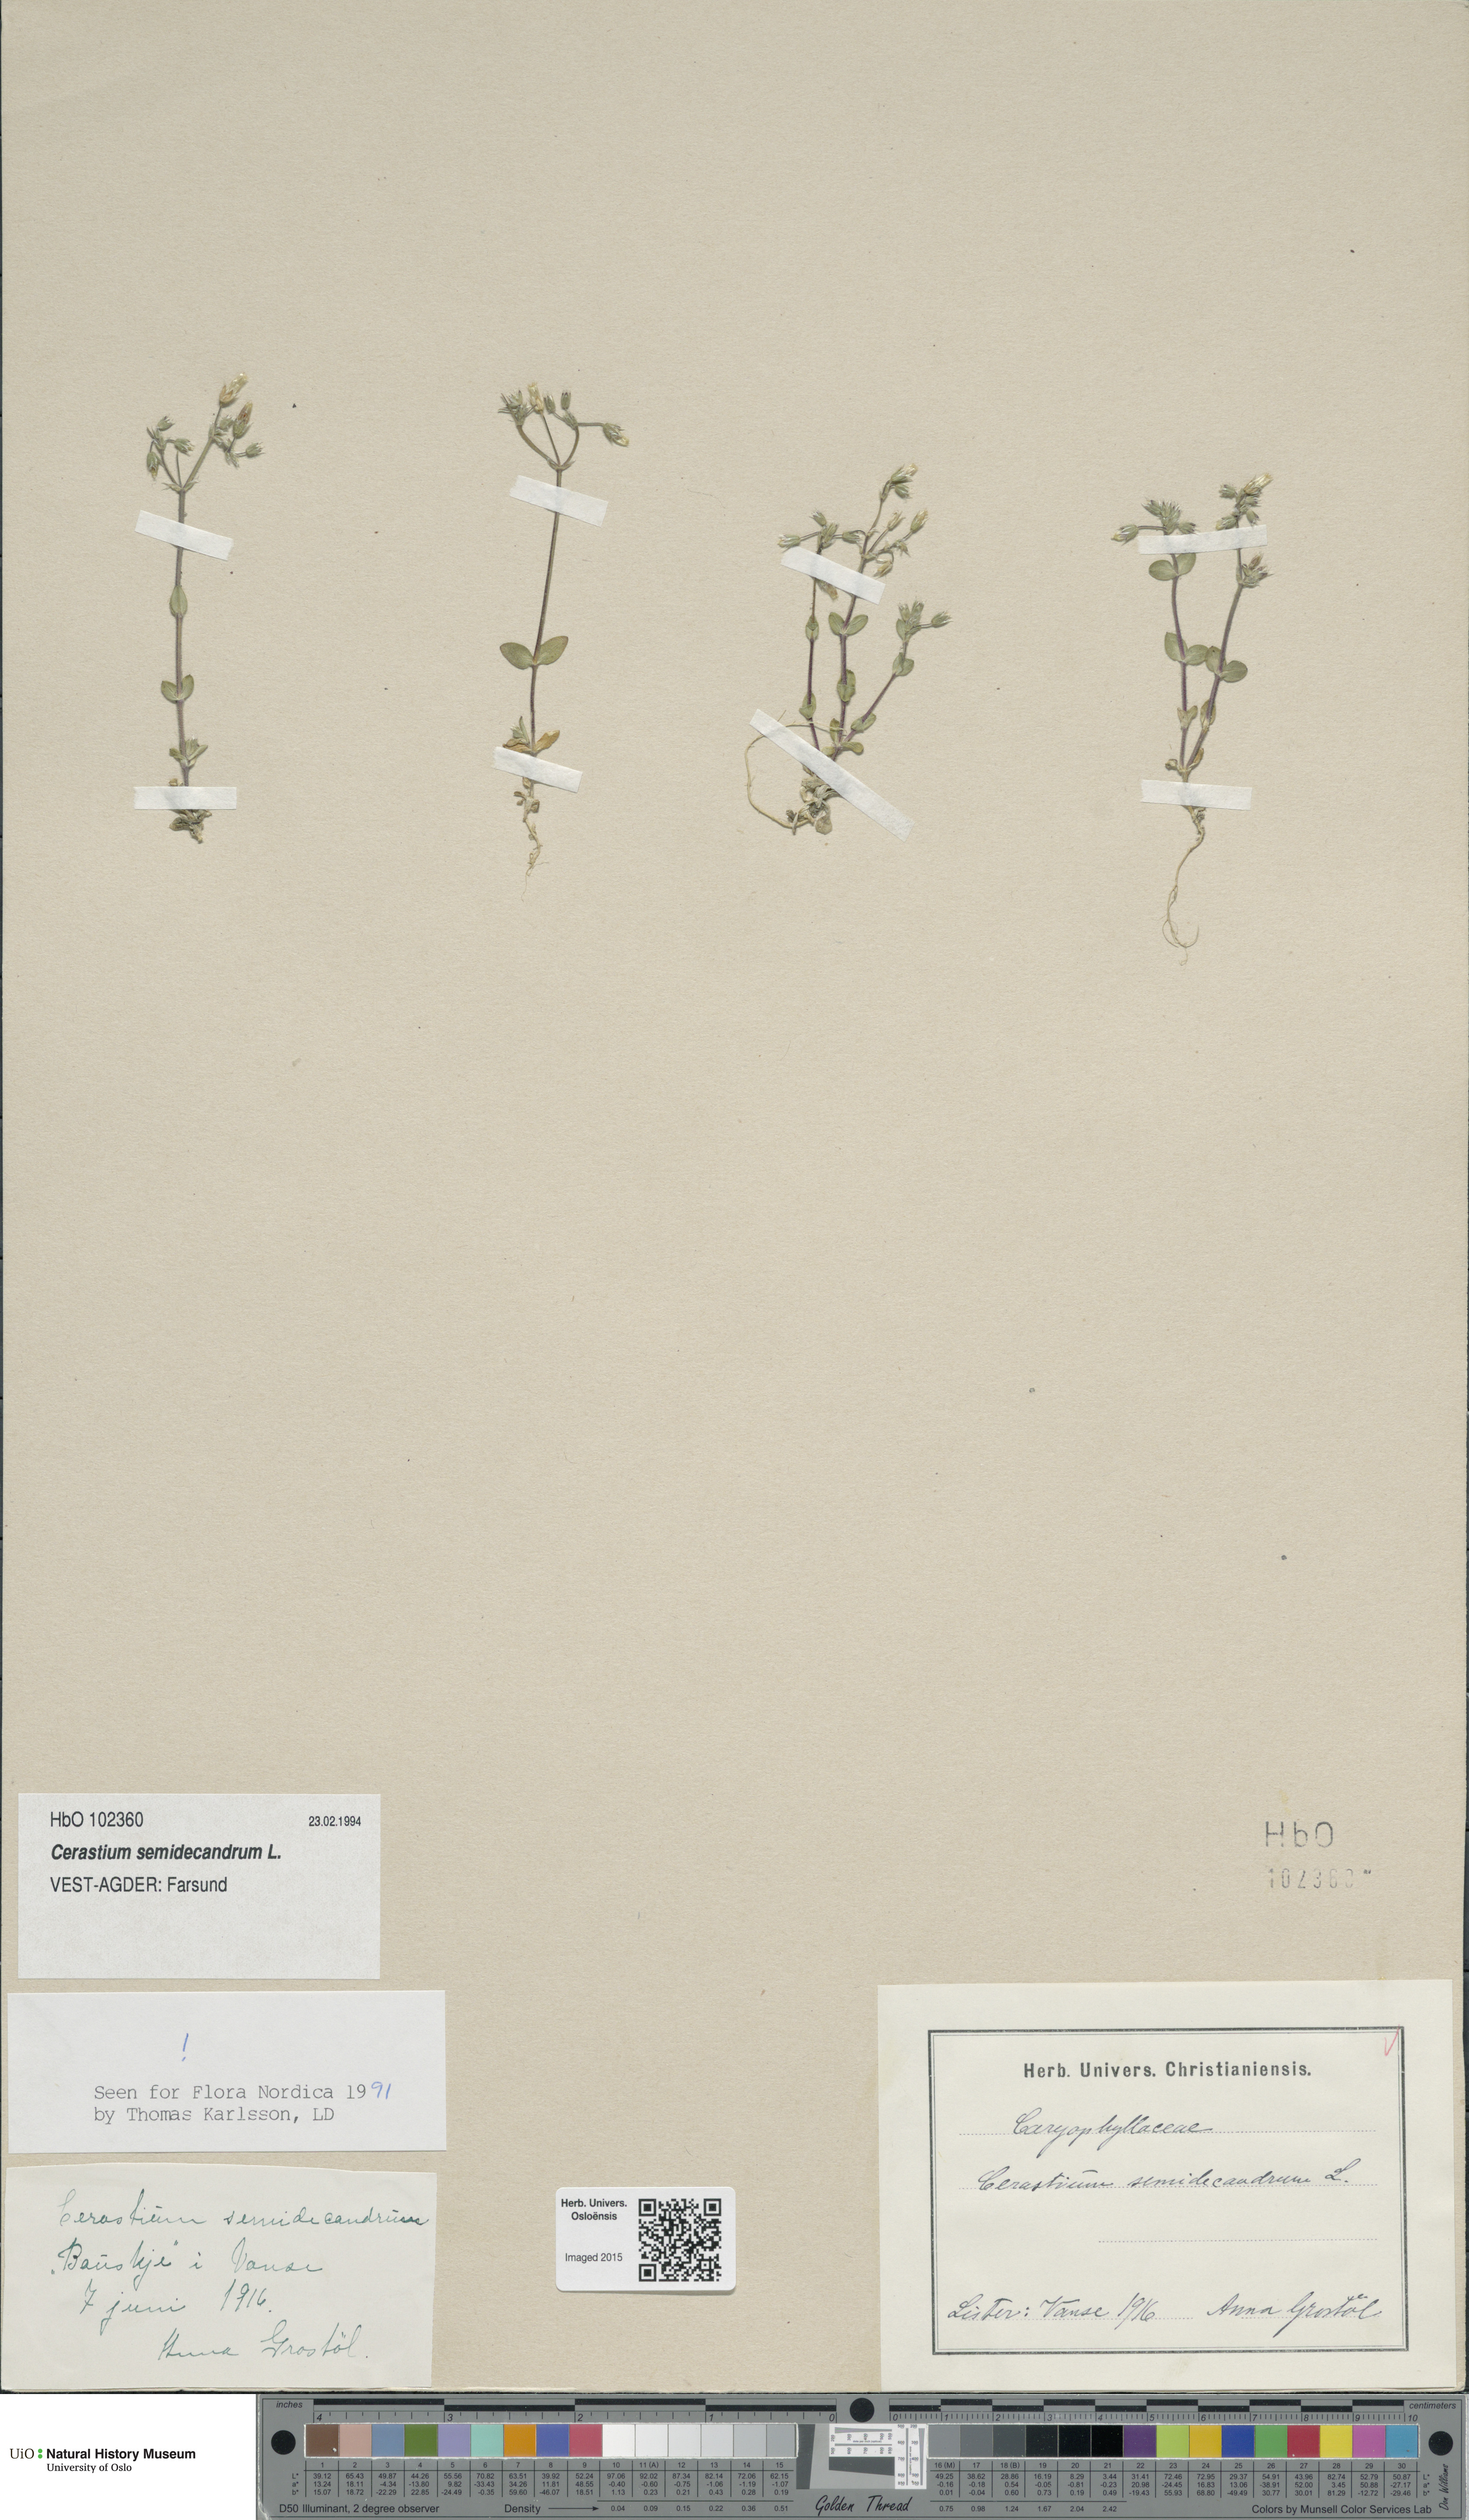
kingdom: Plantae
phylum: Tracheophyta
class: Magnoliopsida
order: Caryophyllales
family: Caryophyllaceae
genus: Cerastium
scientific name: Cerastium semidecandrum
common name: Little mouse-ear
